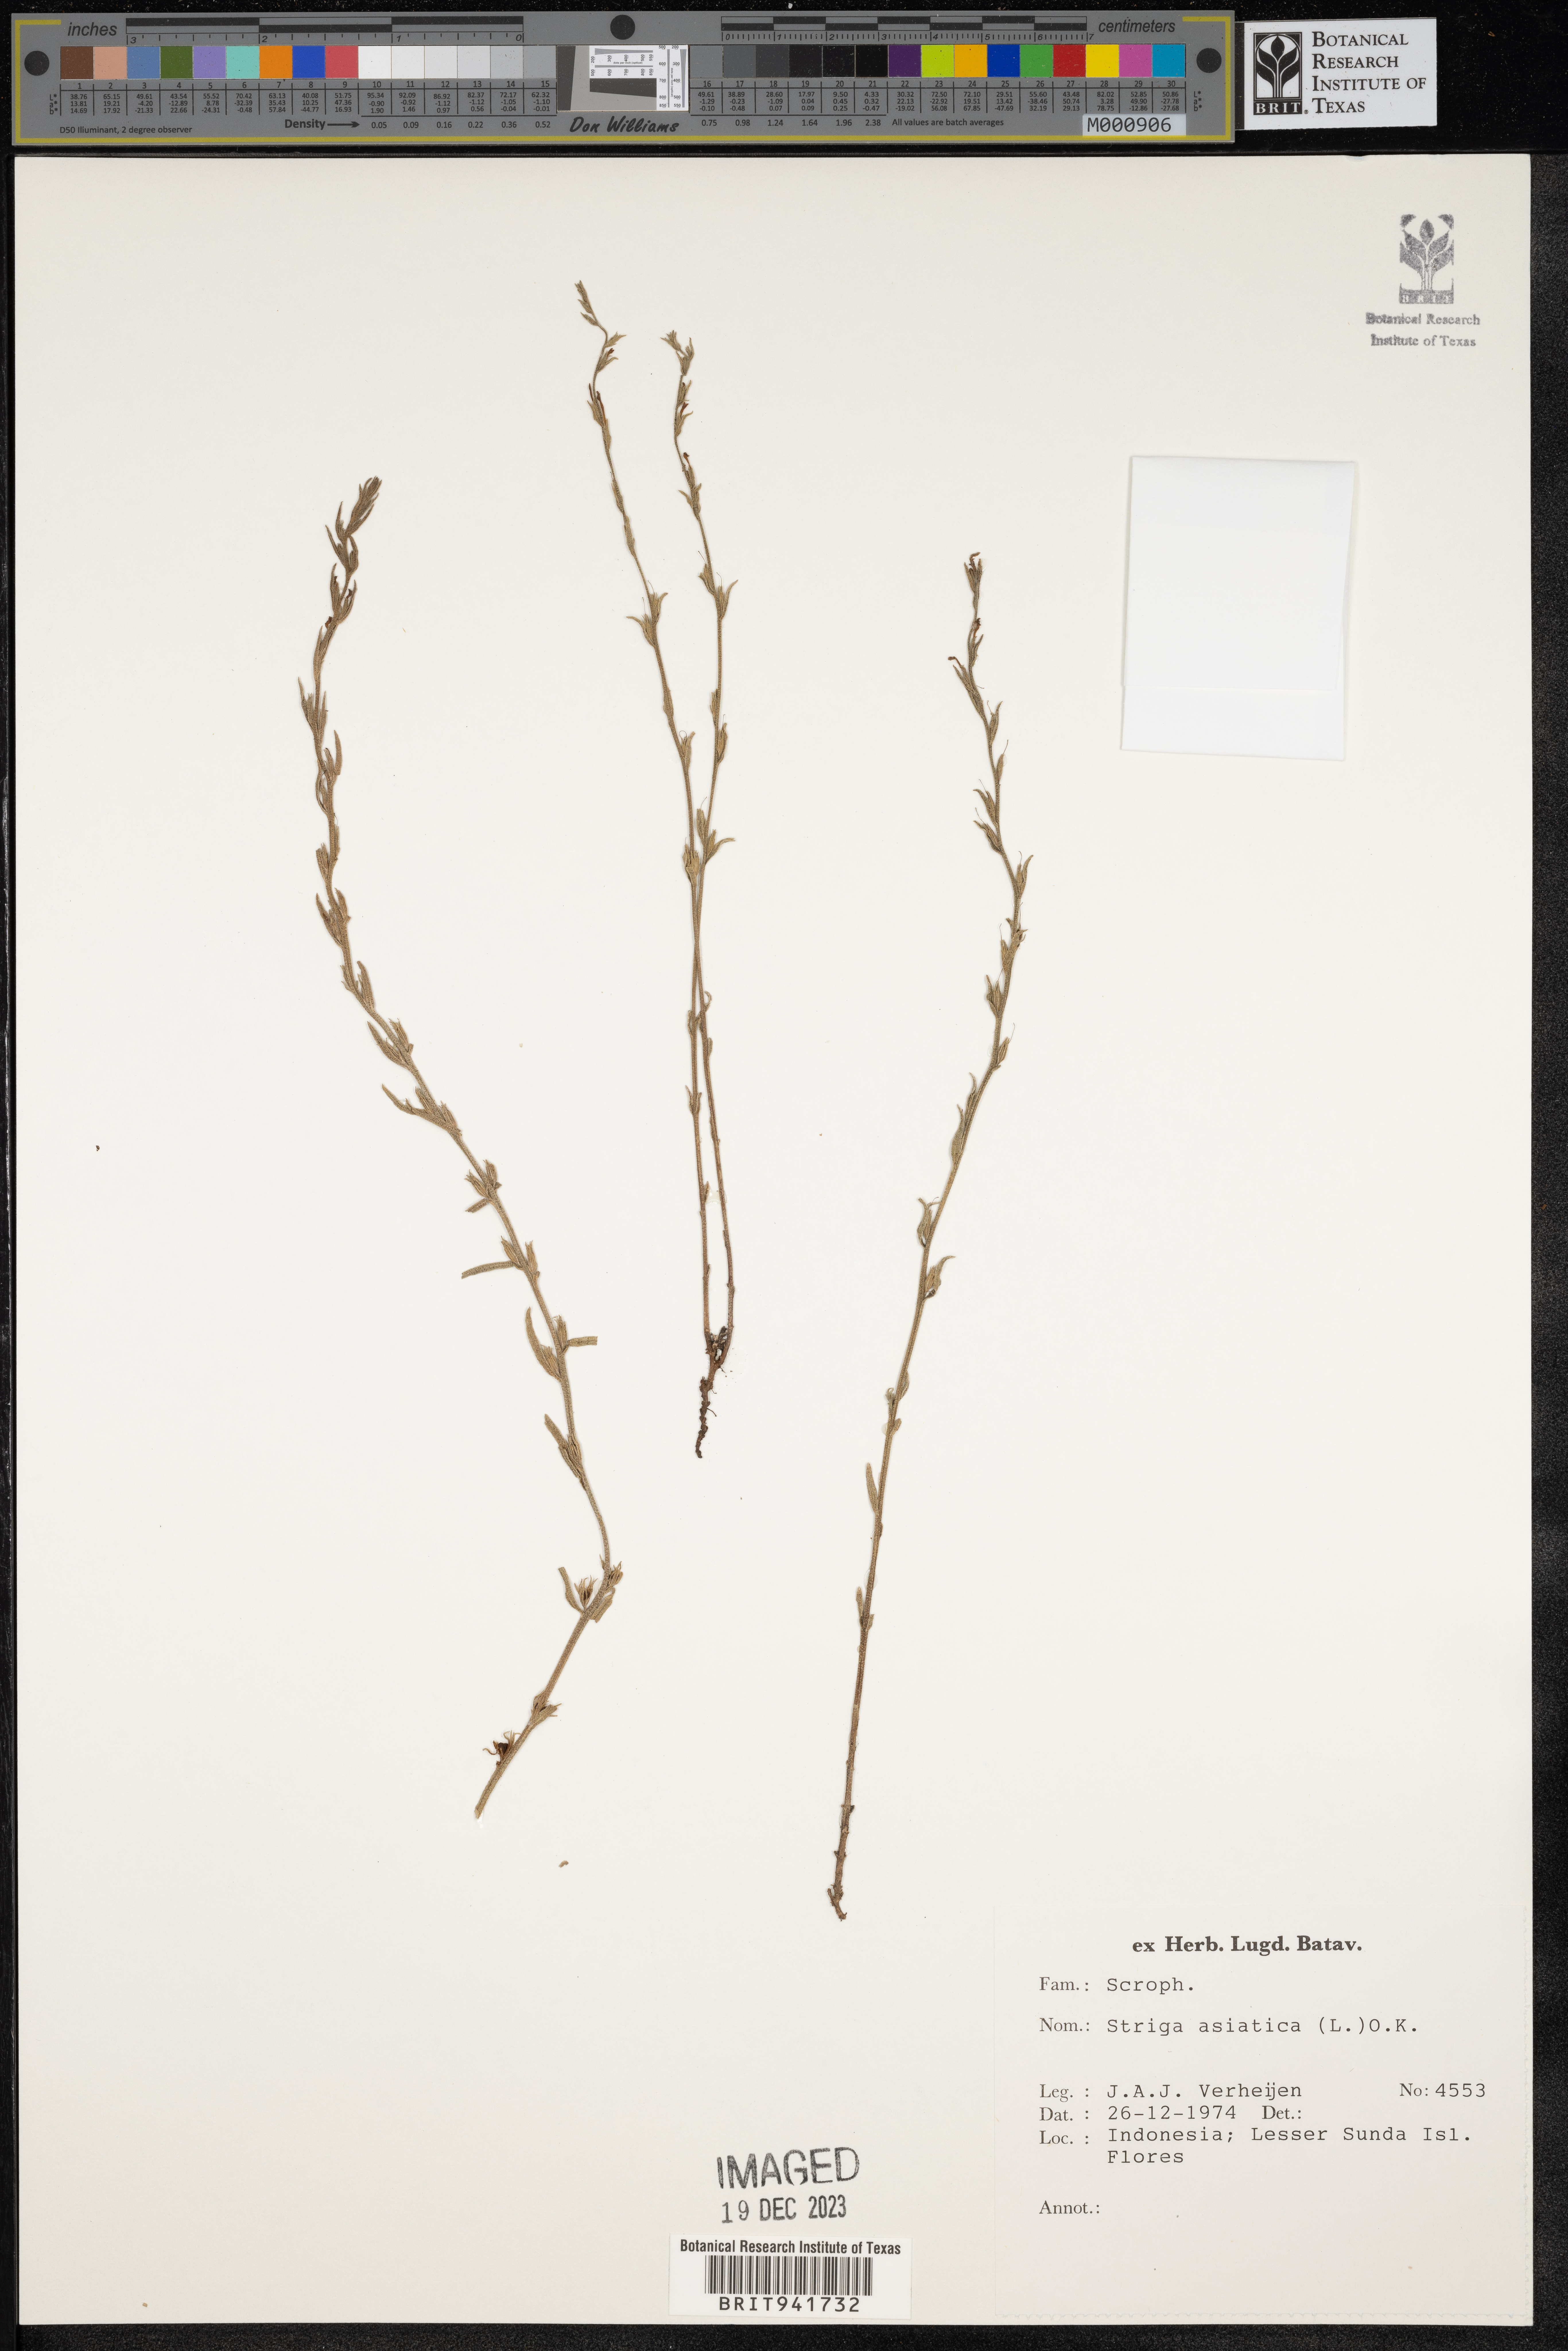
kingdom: Plantae
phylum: Tracheophyta
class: Magnoliopsida
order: Lamiales
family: Orobanchaceae
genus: Striga
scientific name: Striga
